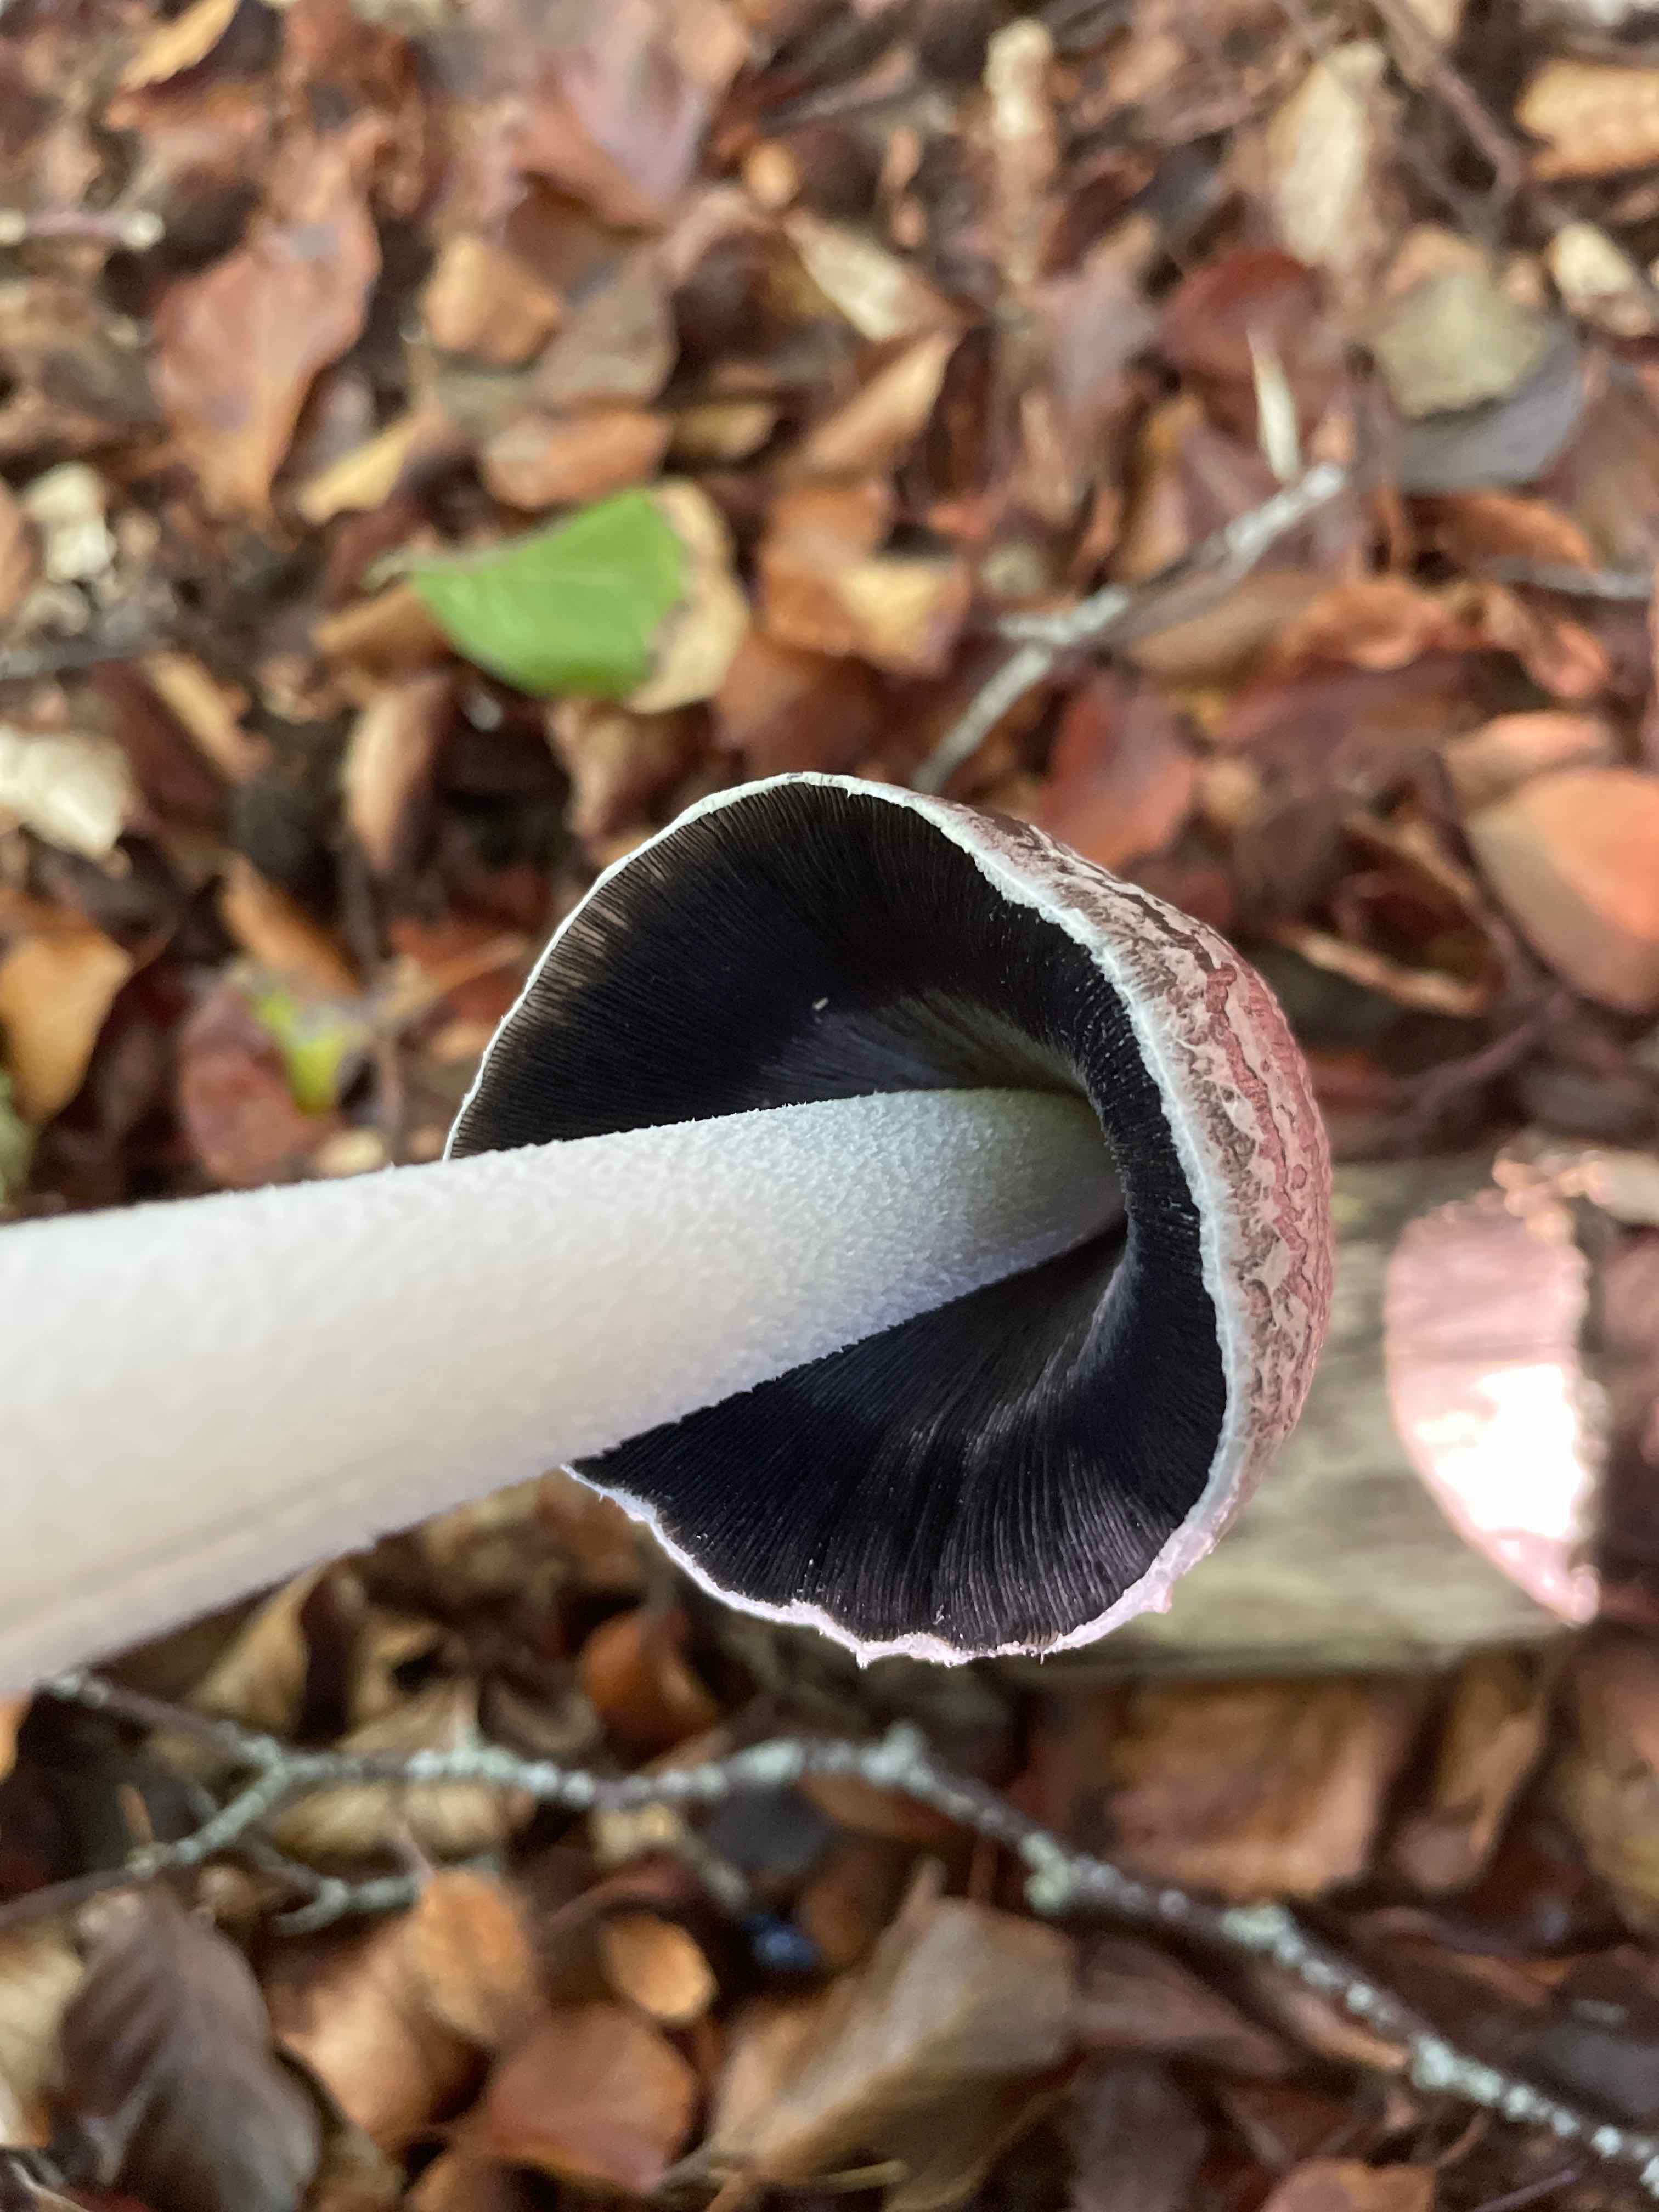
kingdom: Fungi
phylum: Basidiomycota
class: Agaricomycetes
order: Agaricales
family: Psathyrellaceae
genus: Coprinopsis
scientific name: Coprinopsis picacea
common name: skade-blækhat
